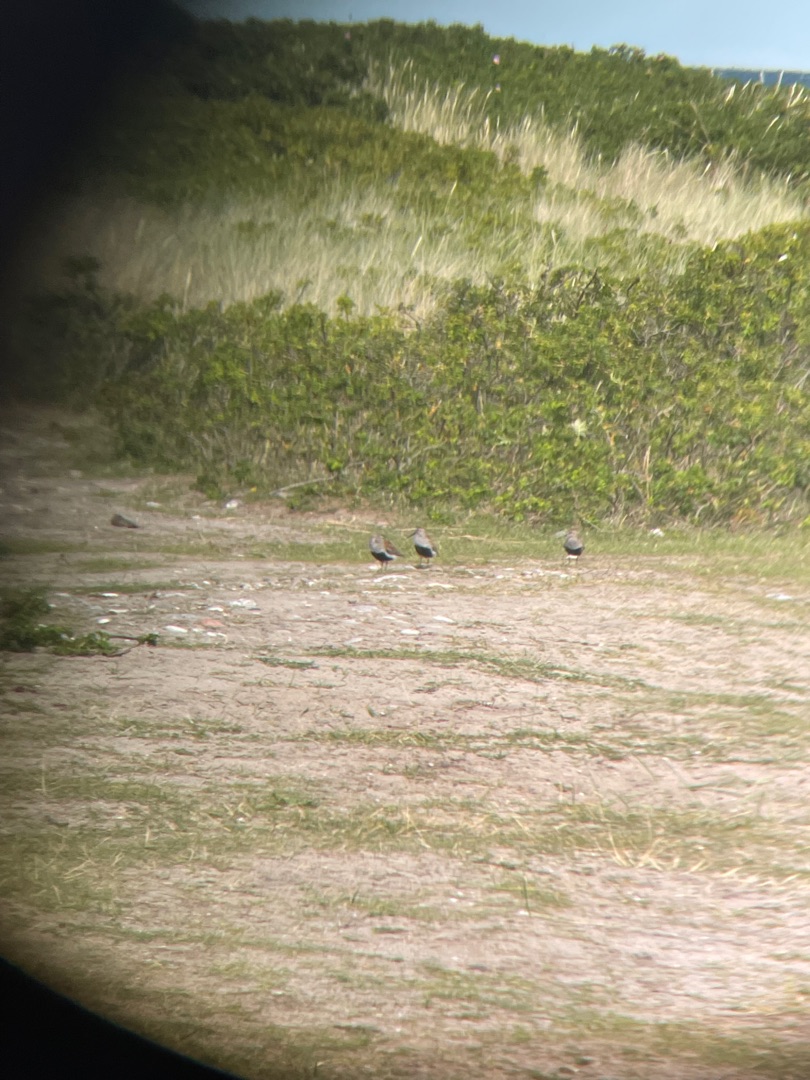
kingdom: Animalia
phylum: Chordata
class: Aves
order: Charadriiformes
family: Scolopacidae
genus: Calidris
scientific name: Calidris alpina
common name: Almindelig ryle
